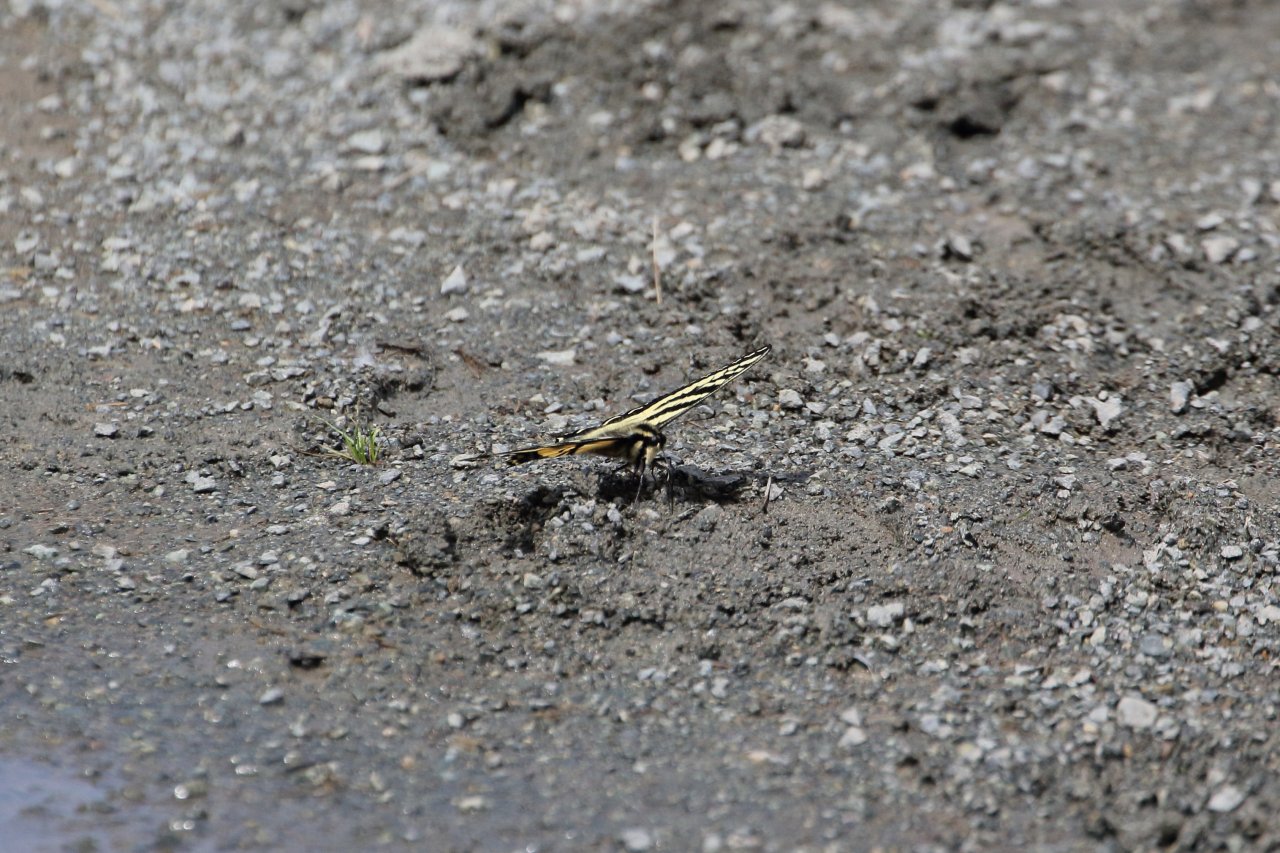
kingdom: Animalia
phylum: Arthropoda
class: Insecta
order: Lepidoptera
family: Papilionidae
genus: Pterourus
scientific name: Pterourus rutulus
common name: Western Tiger Swallowtail
